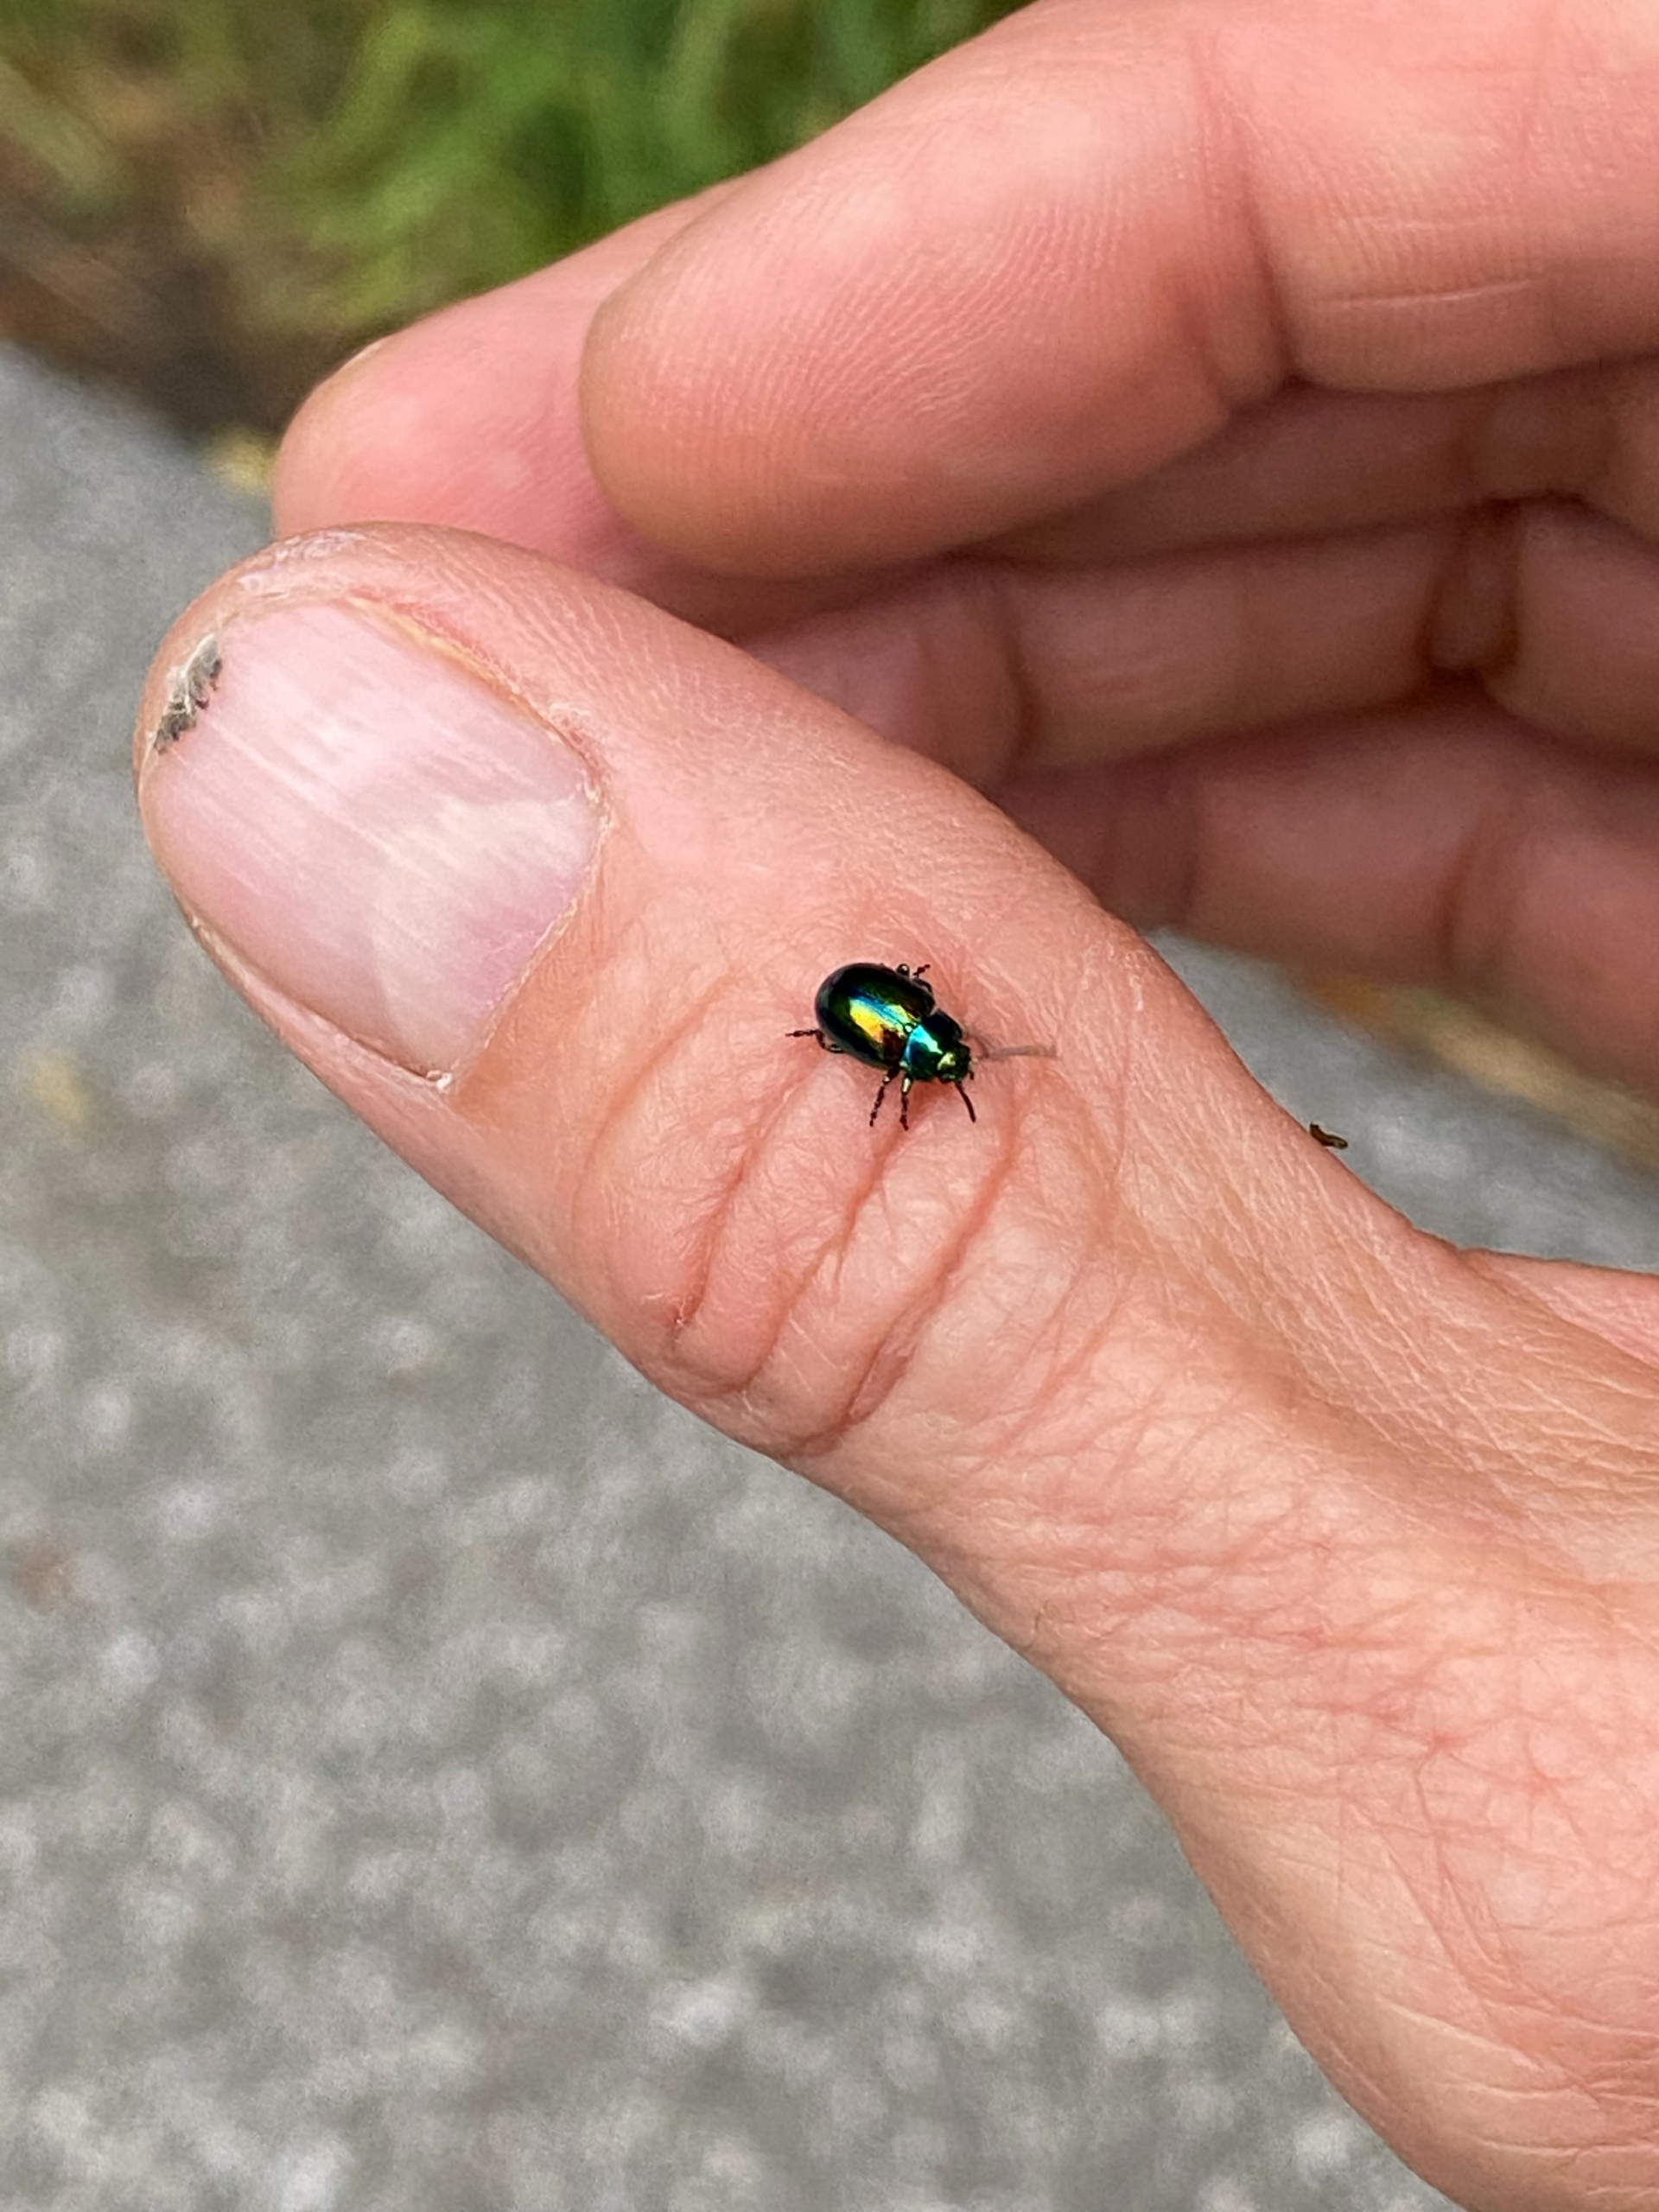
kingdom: Animalia
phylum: Arthropoda
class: Insecta
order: Coleoptera
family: Chrysomelidae
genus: Chrysolina
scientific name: Chrysolina fastuosa
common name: Tvetandbladbille
